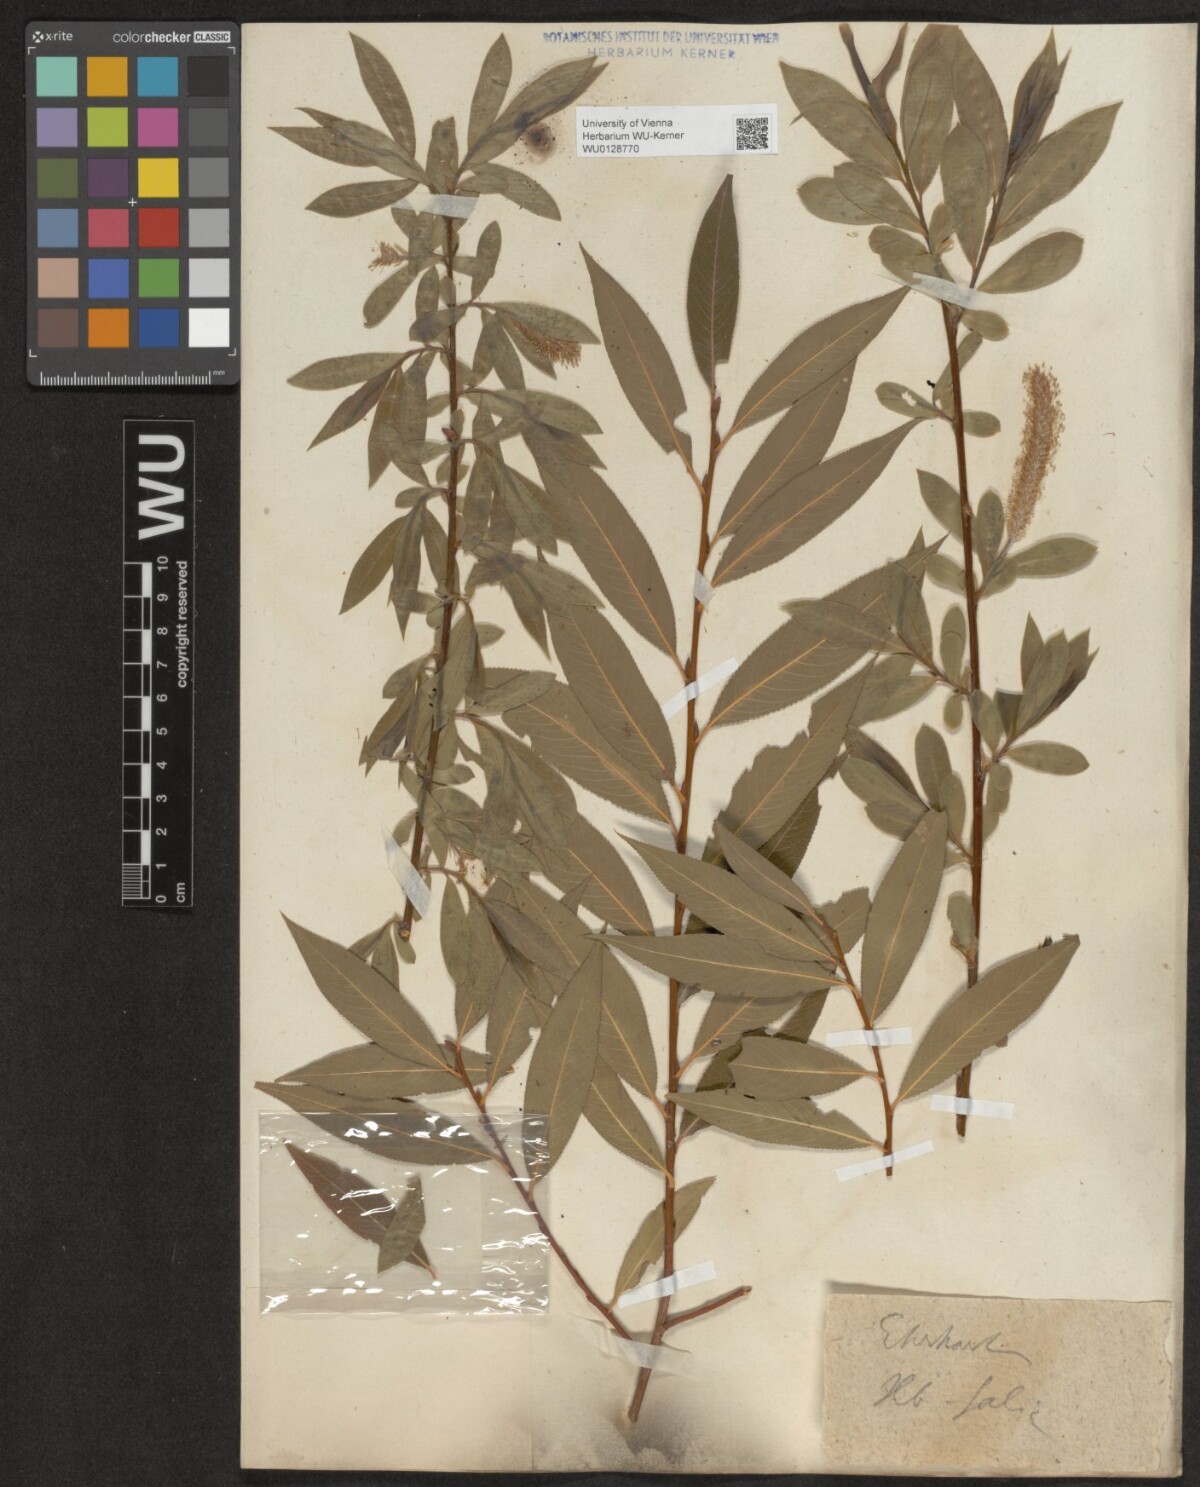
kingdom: Plantae
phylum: Tracheophyta
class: Magnoliopsida
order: Malpighiales
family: Salicaceae
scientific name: Salicaceae
